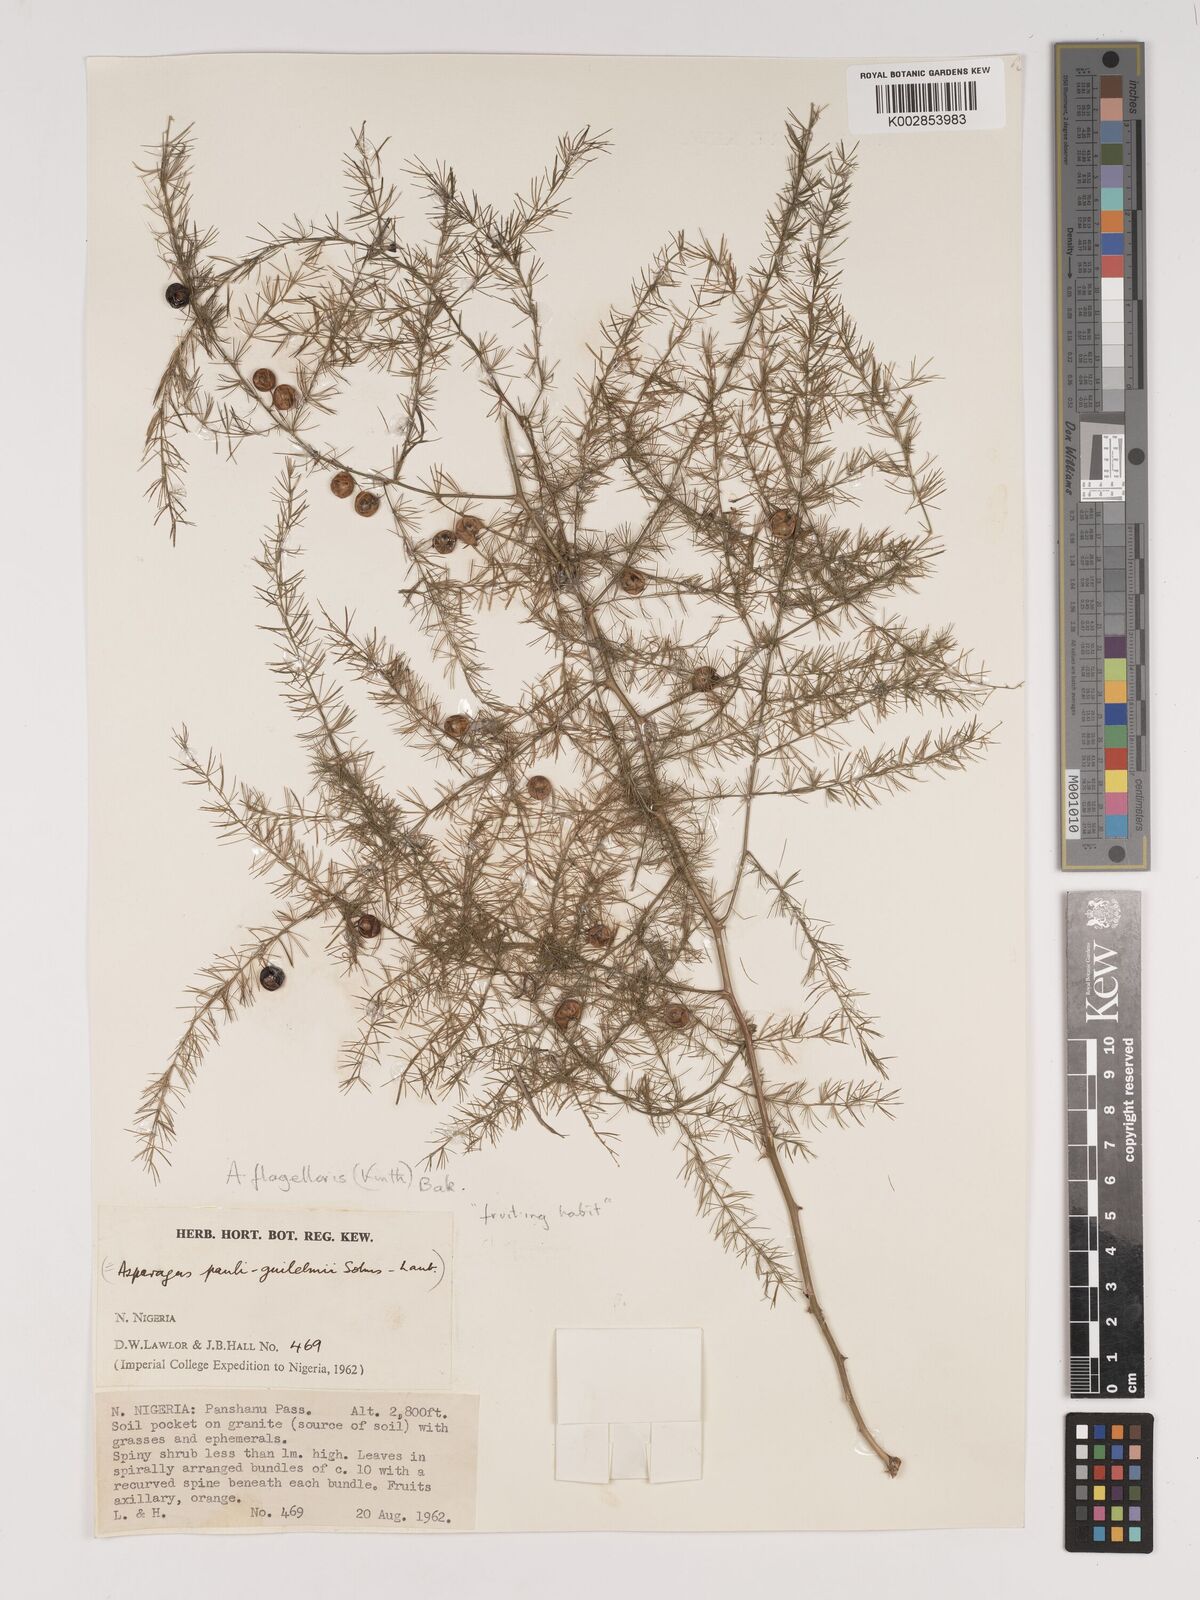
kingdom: Plantae
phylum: Tracheophyta
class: Liliopsida
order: Asparagales
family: Asparagaceae
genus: Asparagus
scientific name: Asparagus
